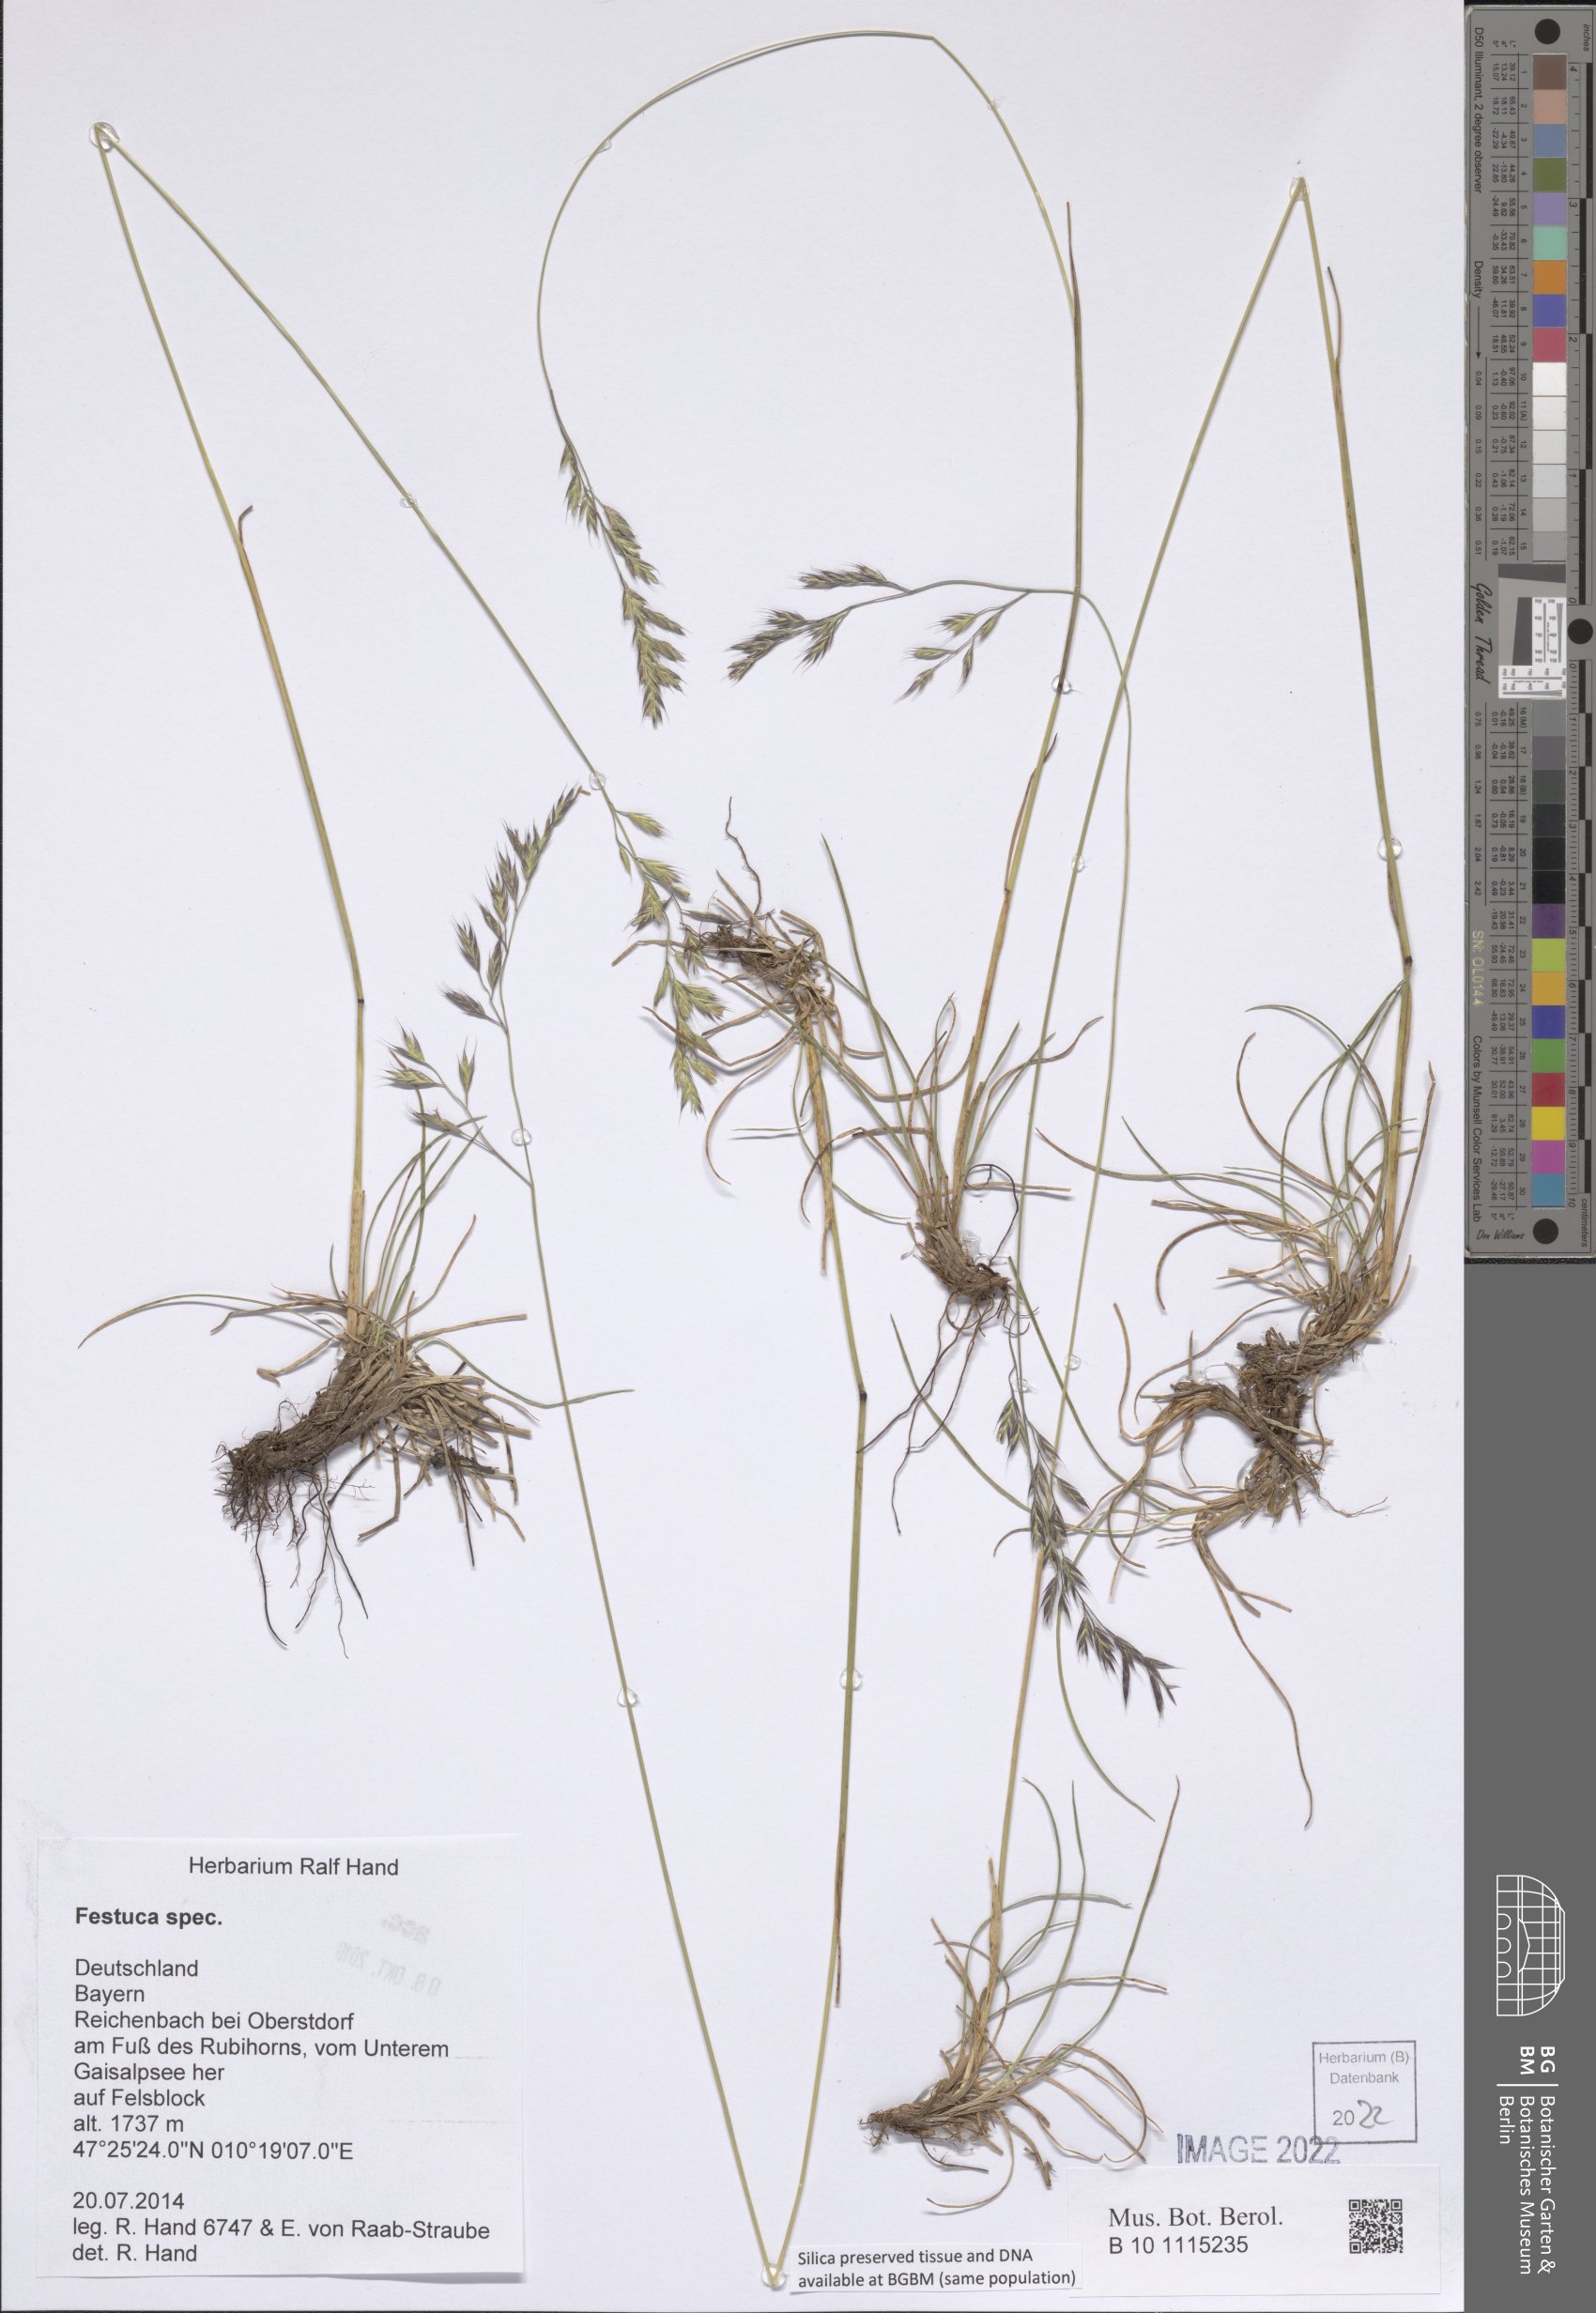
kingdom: Plantae
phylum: Tracheophyta
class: Liliopsida
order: Poales
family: Poaceae
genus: Festuca
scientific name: Festuca
